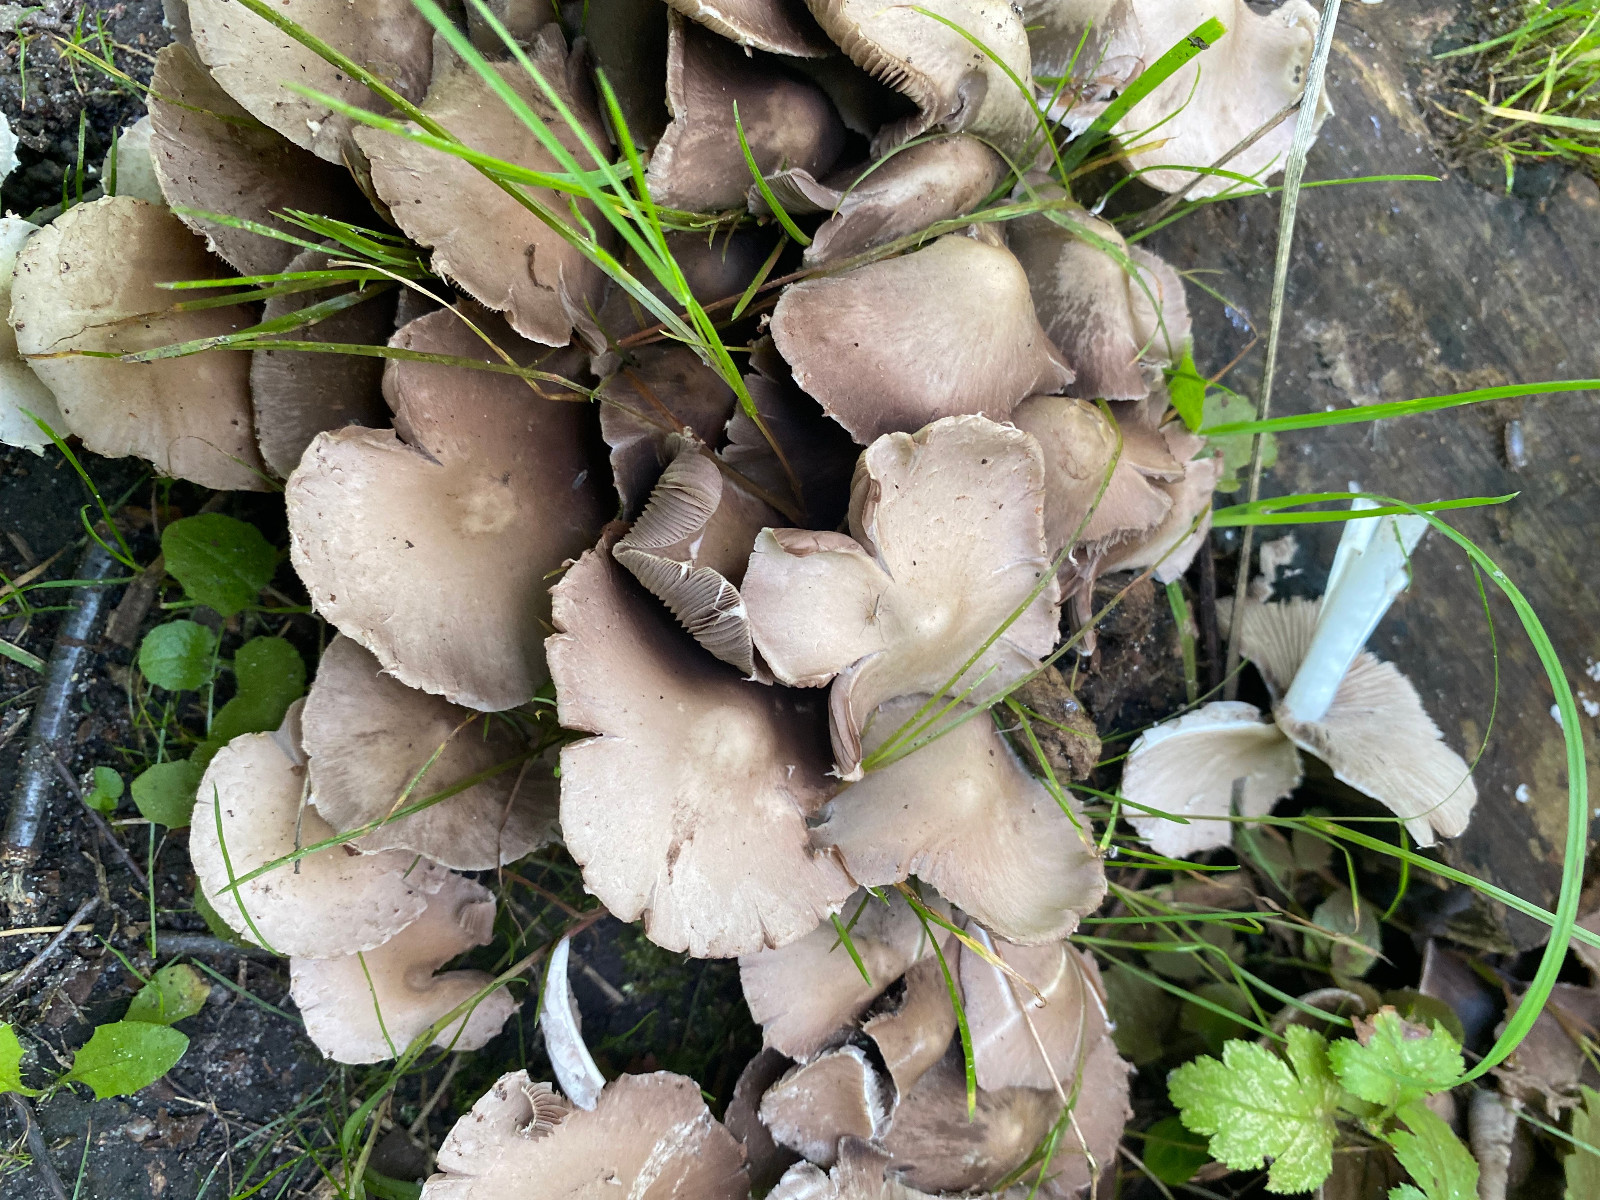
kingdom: Fungi
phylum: Basidiomycota
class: Agaricomycetes
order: Agaricales
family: Psathyrellaceae
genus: Psathyrella
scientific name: Psathyrella
